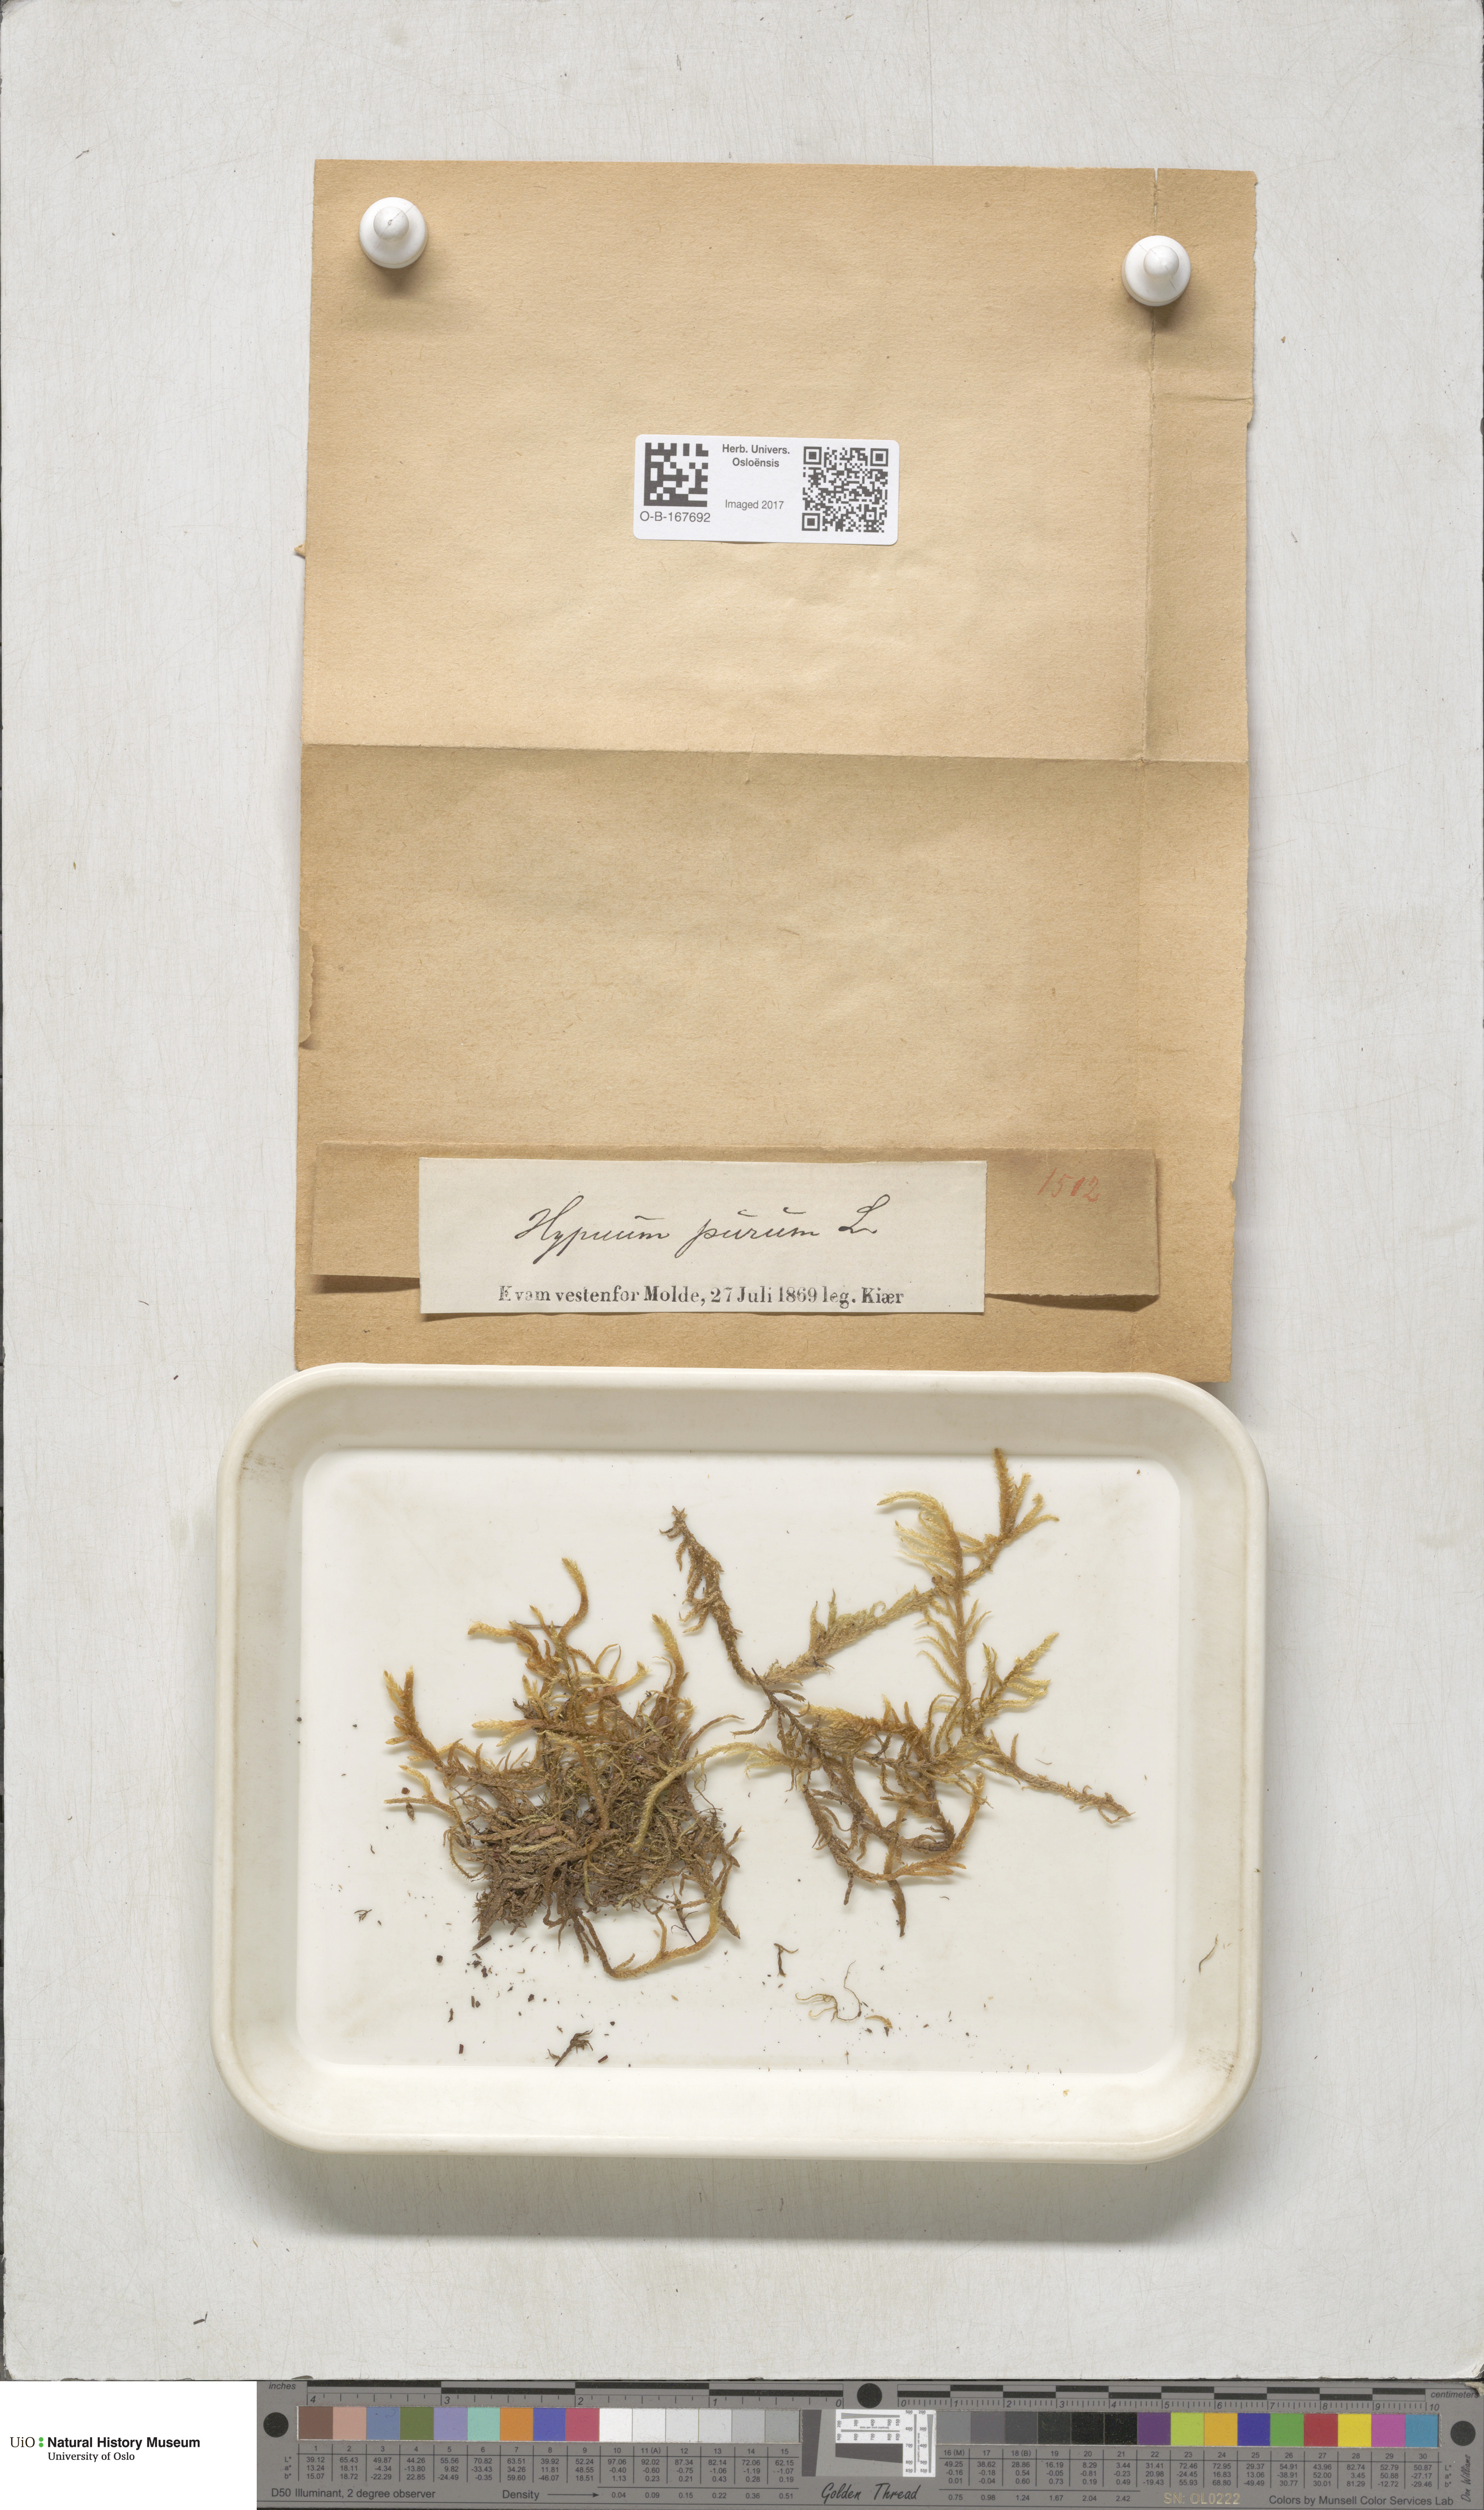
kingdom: Plantae
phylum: Bryophyta
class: Bryopsida
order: Hypnales
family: Brachytheciaceae
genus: Pseudoscleropodium
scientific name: Pseudoscleropodium purum
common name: Neat feather-moss
